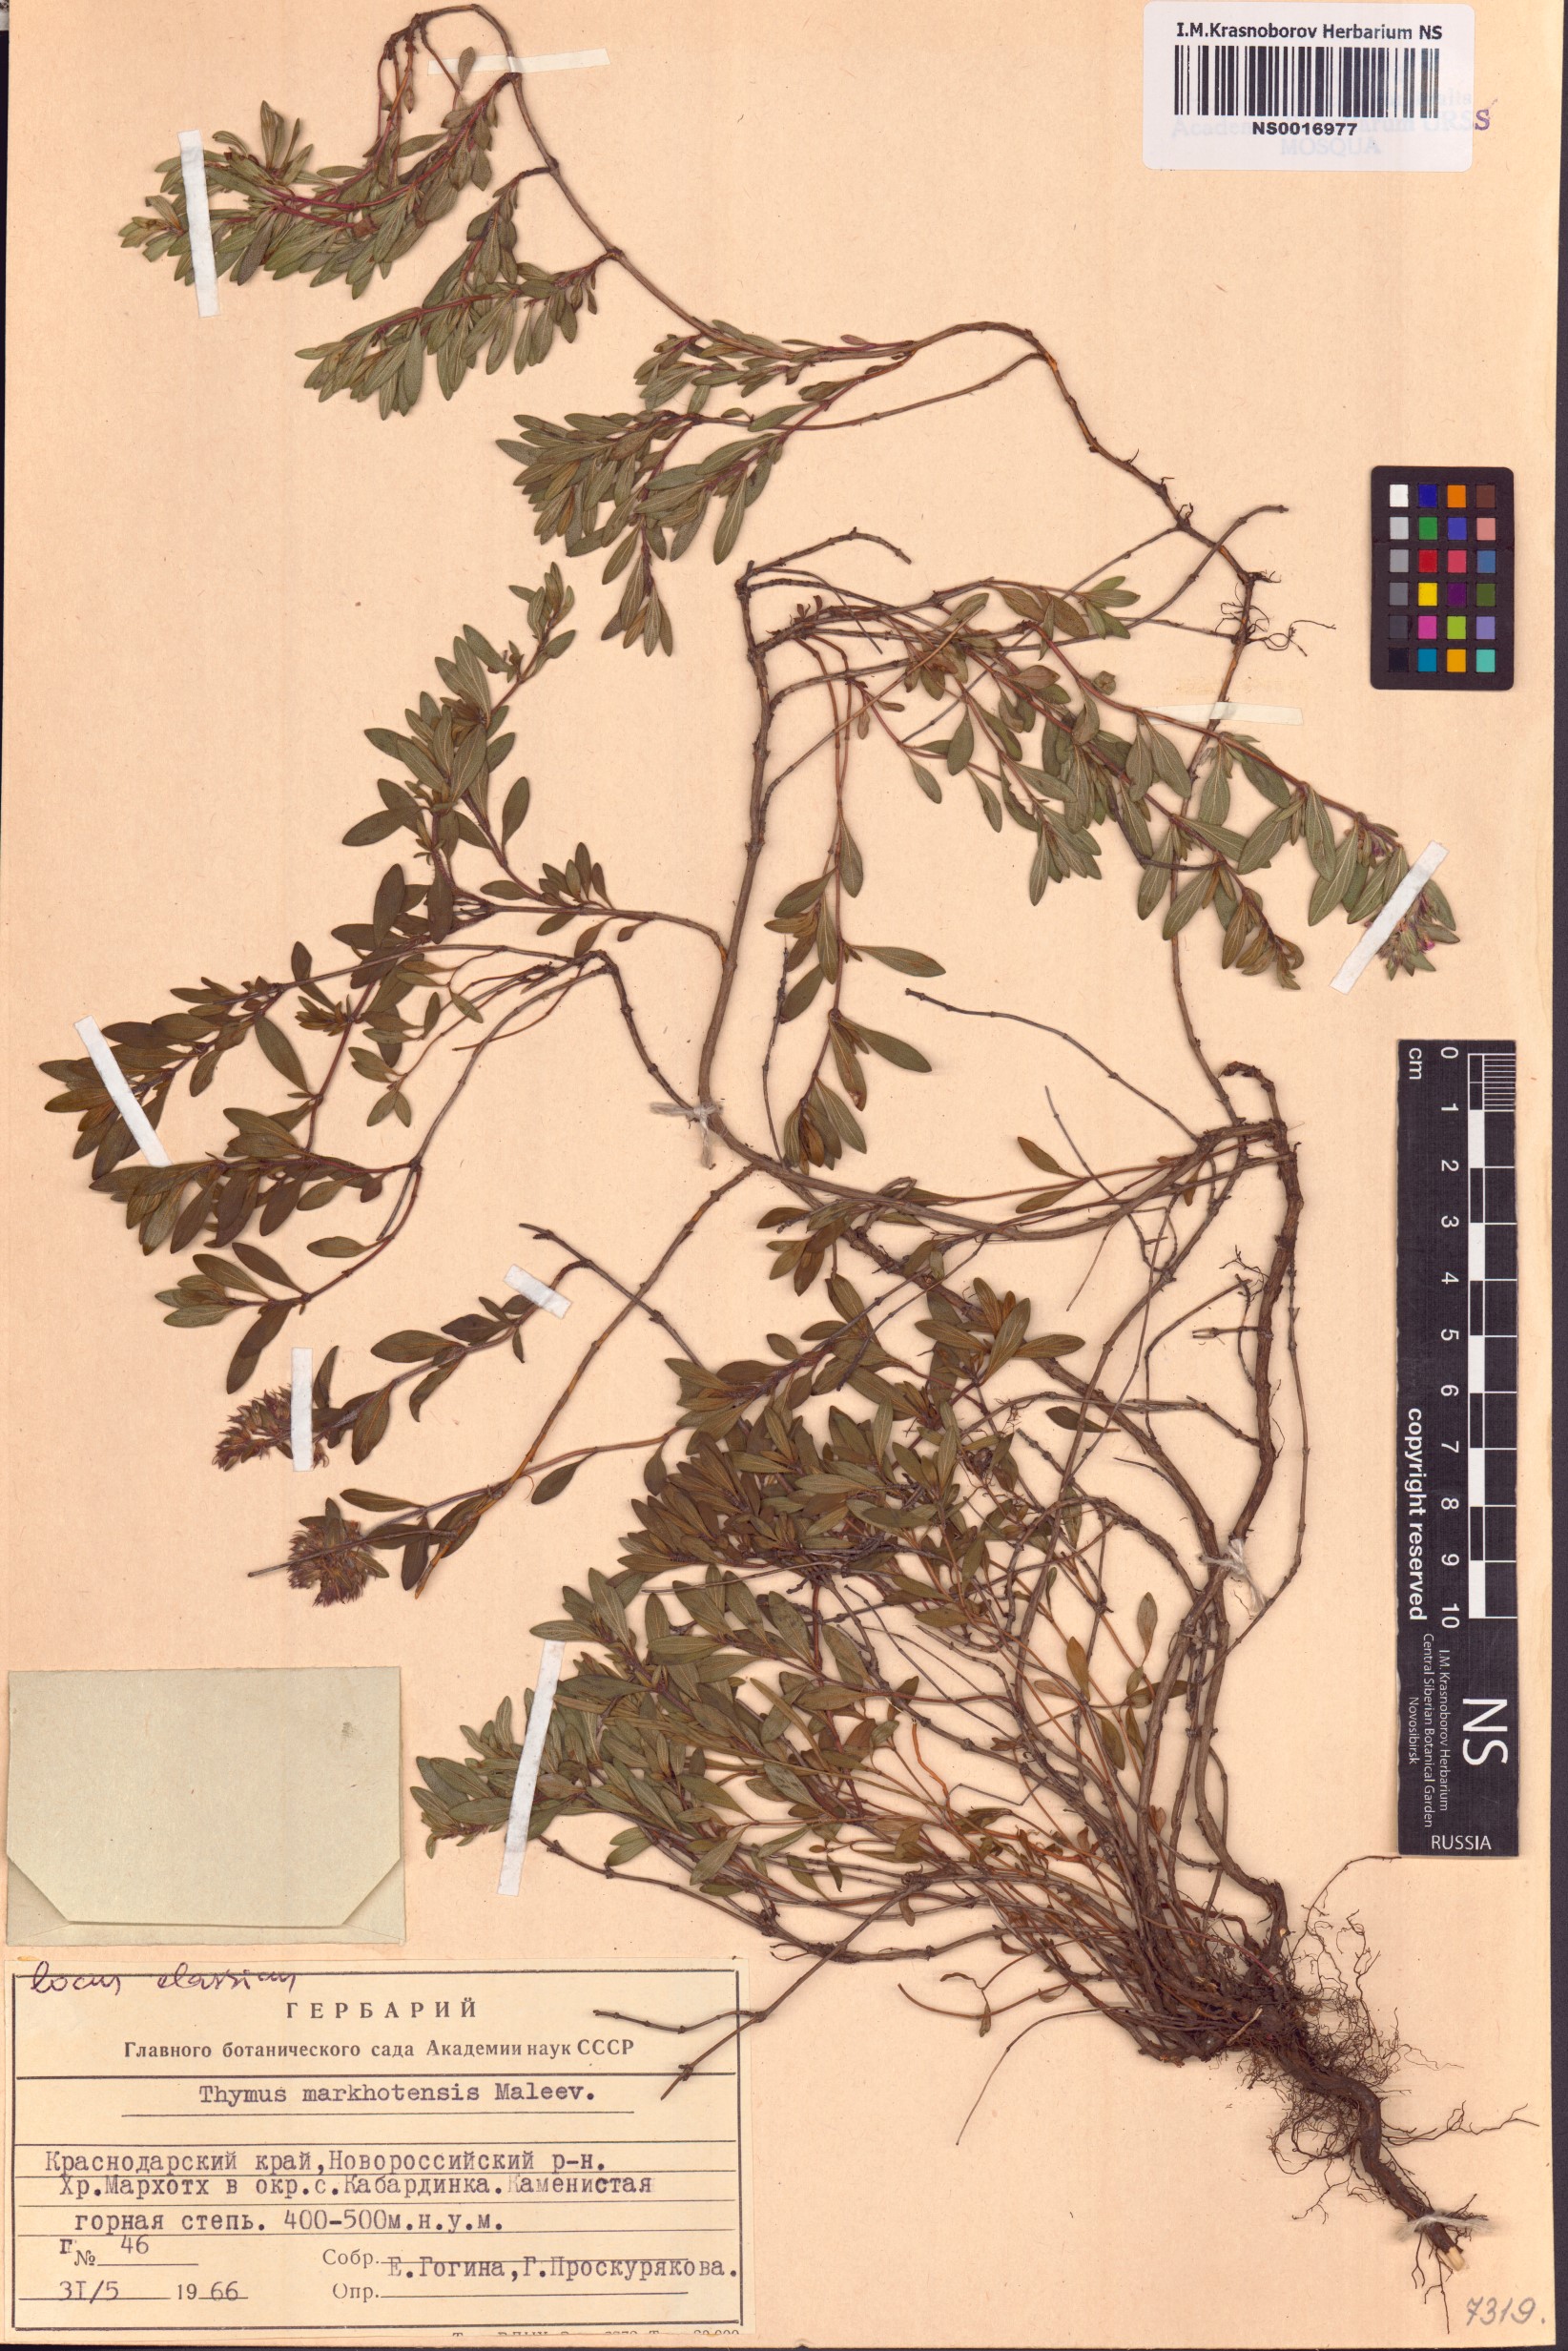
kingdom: Plantae
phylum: Tracheophyta
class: Magnoliopsida
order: Lamiales
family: Lamiaceae
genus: Thymus
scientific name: Thymus markhotensis
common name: Markhotian thyme
